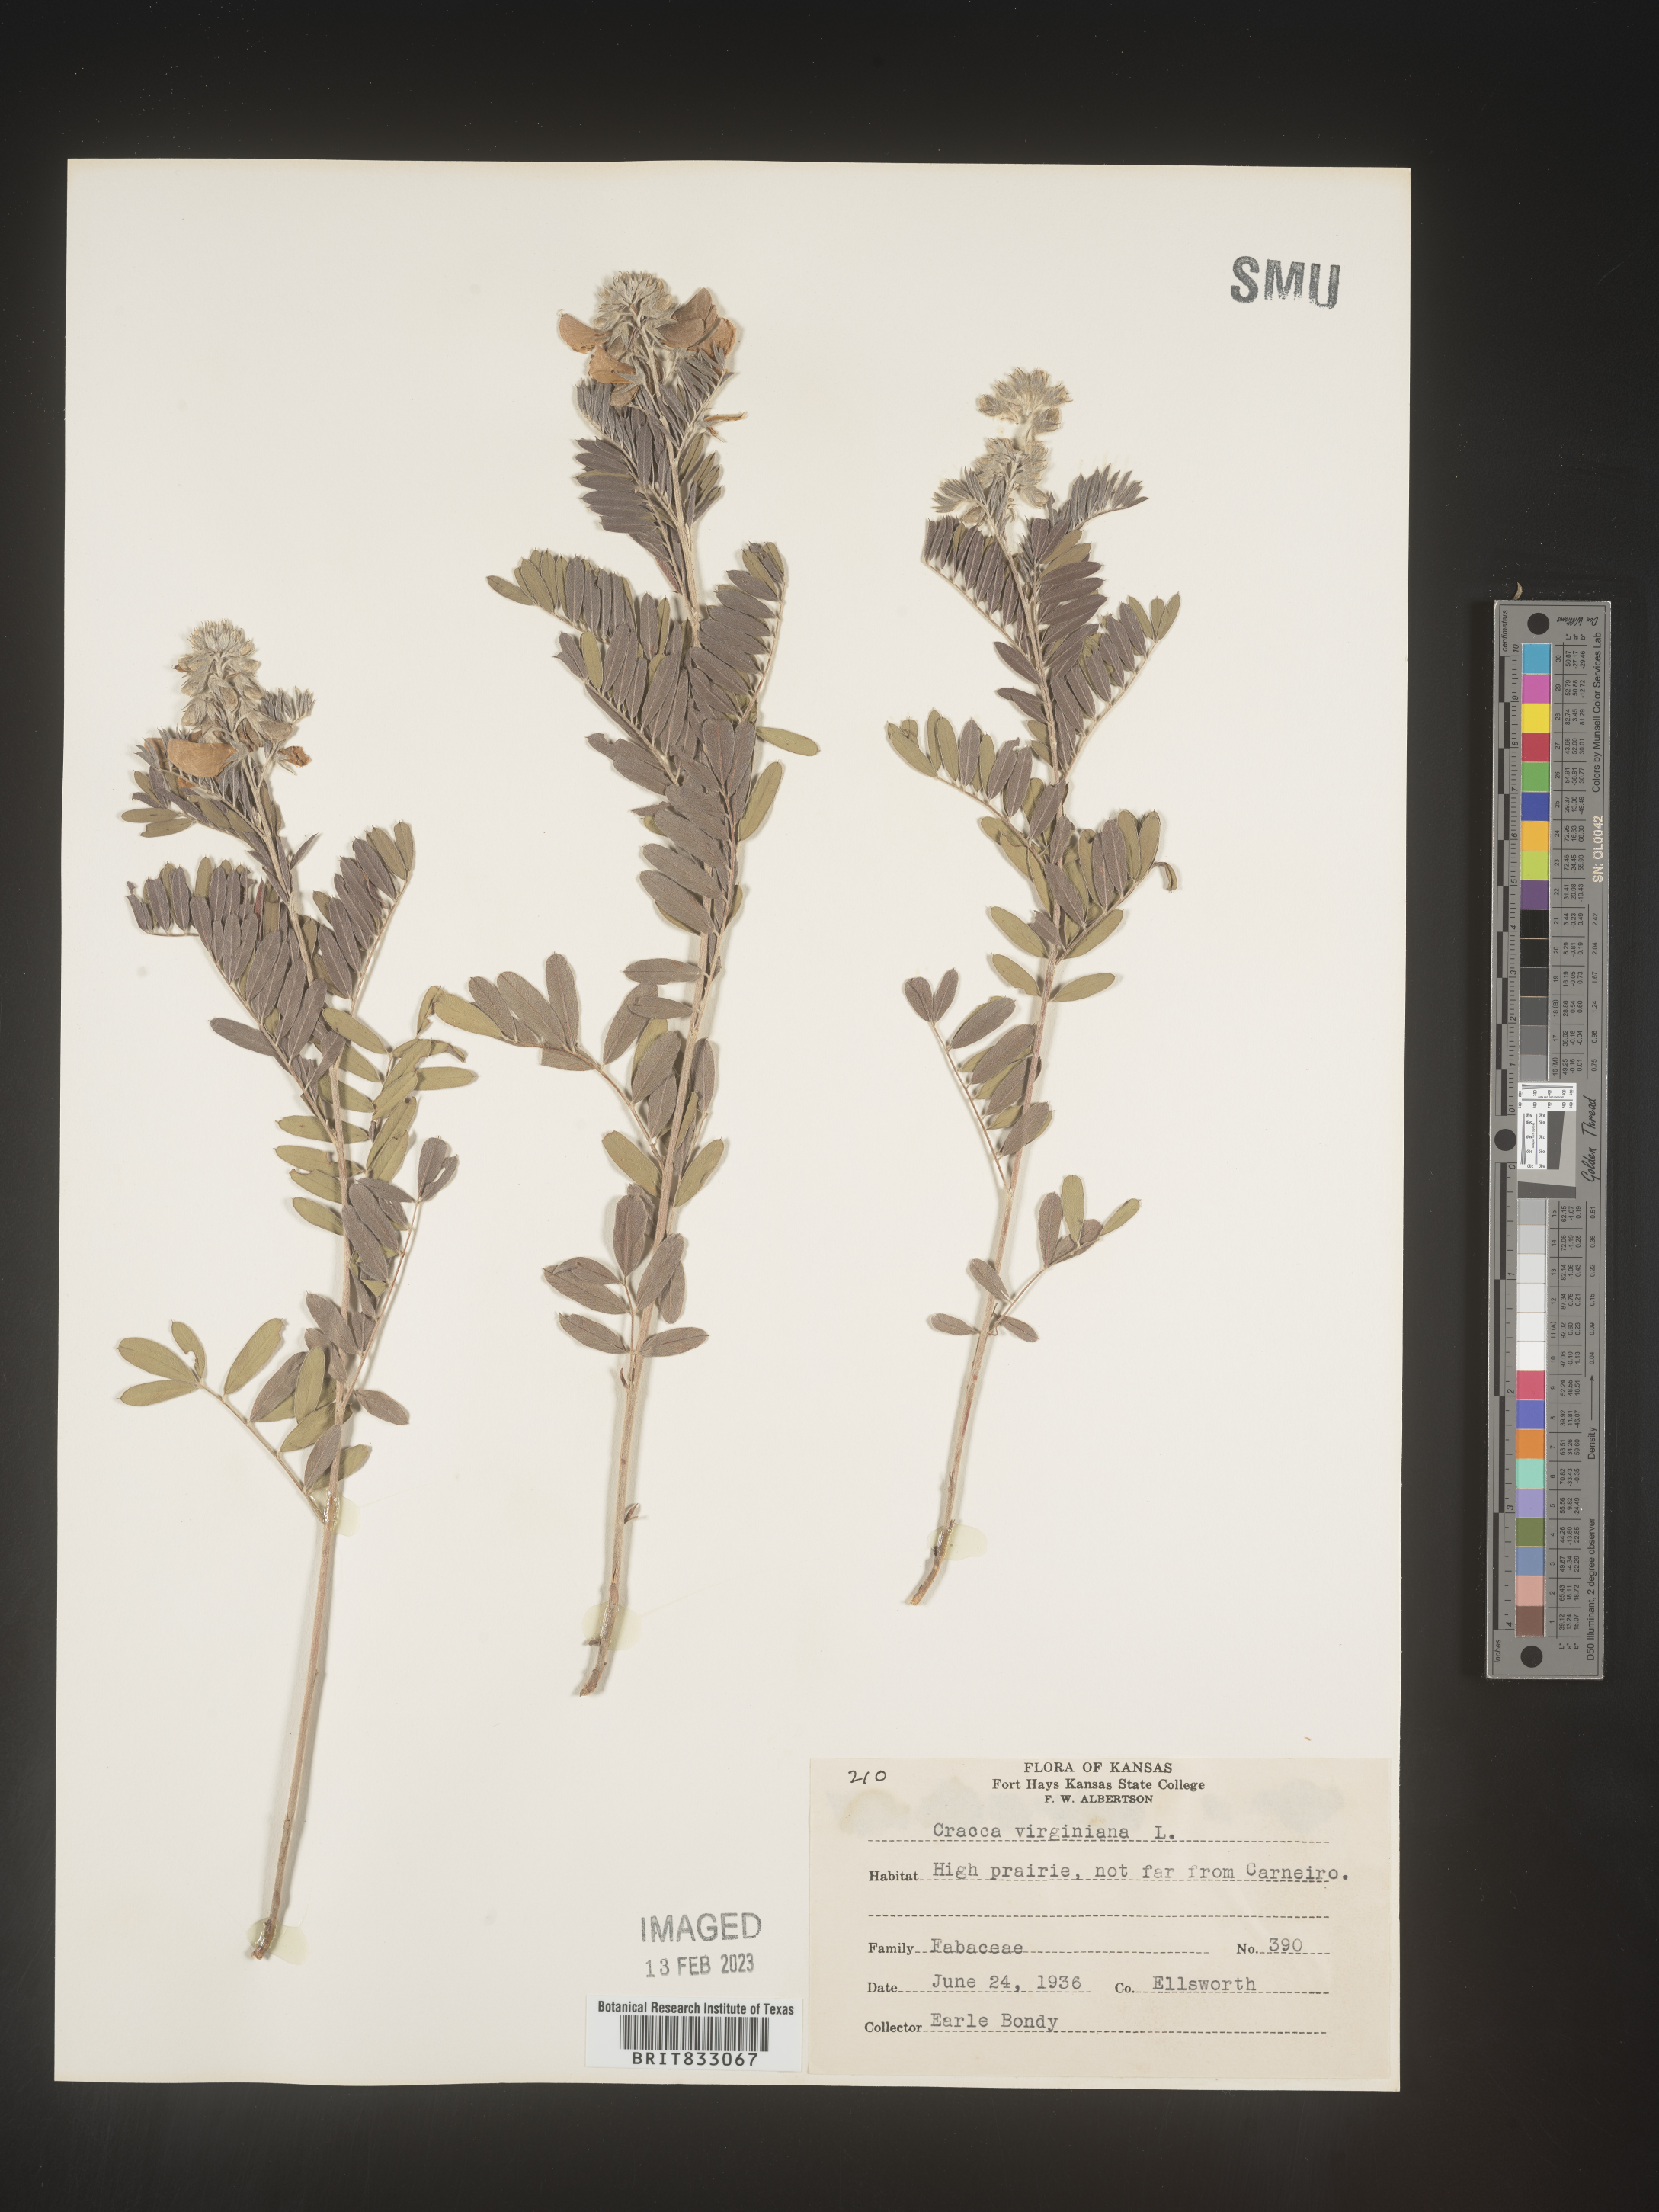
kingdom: Plantae
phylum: Tracheophyta
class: Magnoliopsida
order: Fabales
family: Fabaceae
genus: Tephrosia
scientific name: Tephrosia virginiana
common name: Rabbit-pea
